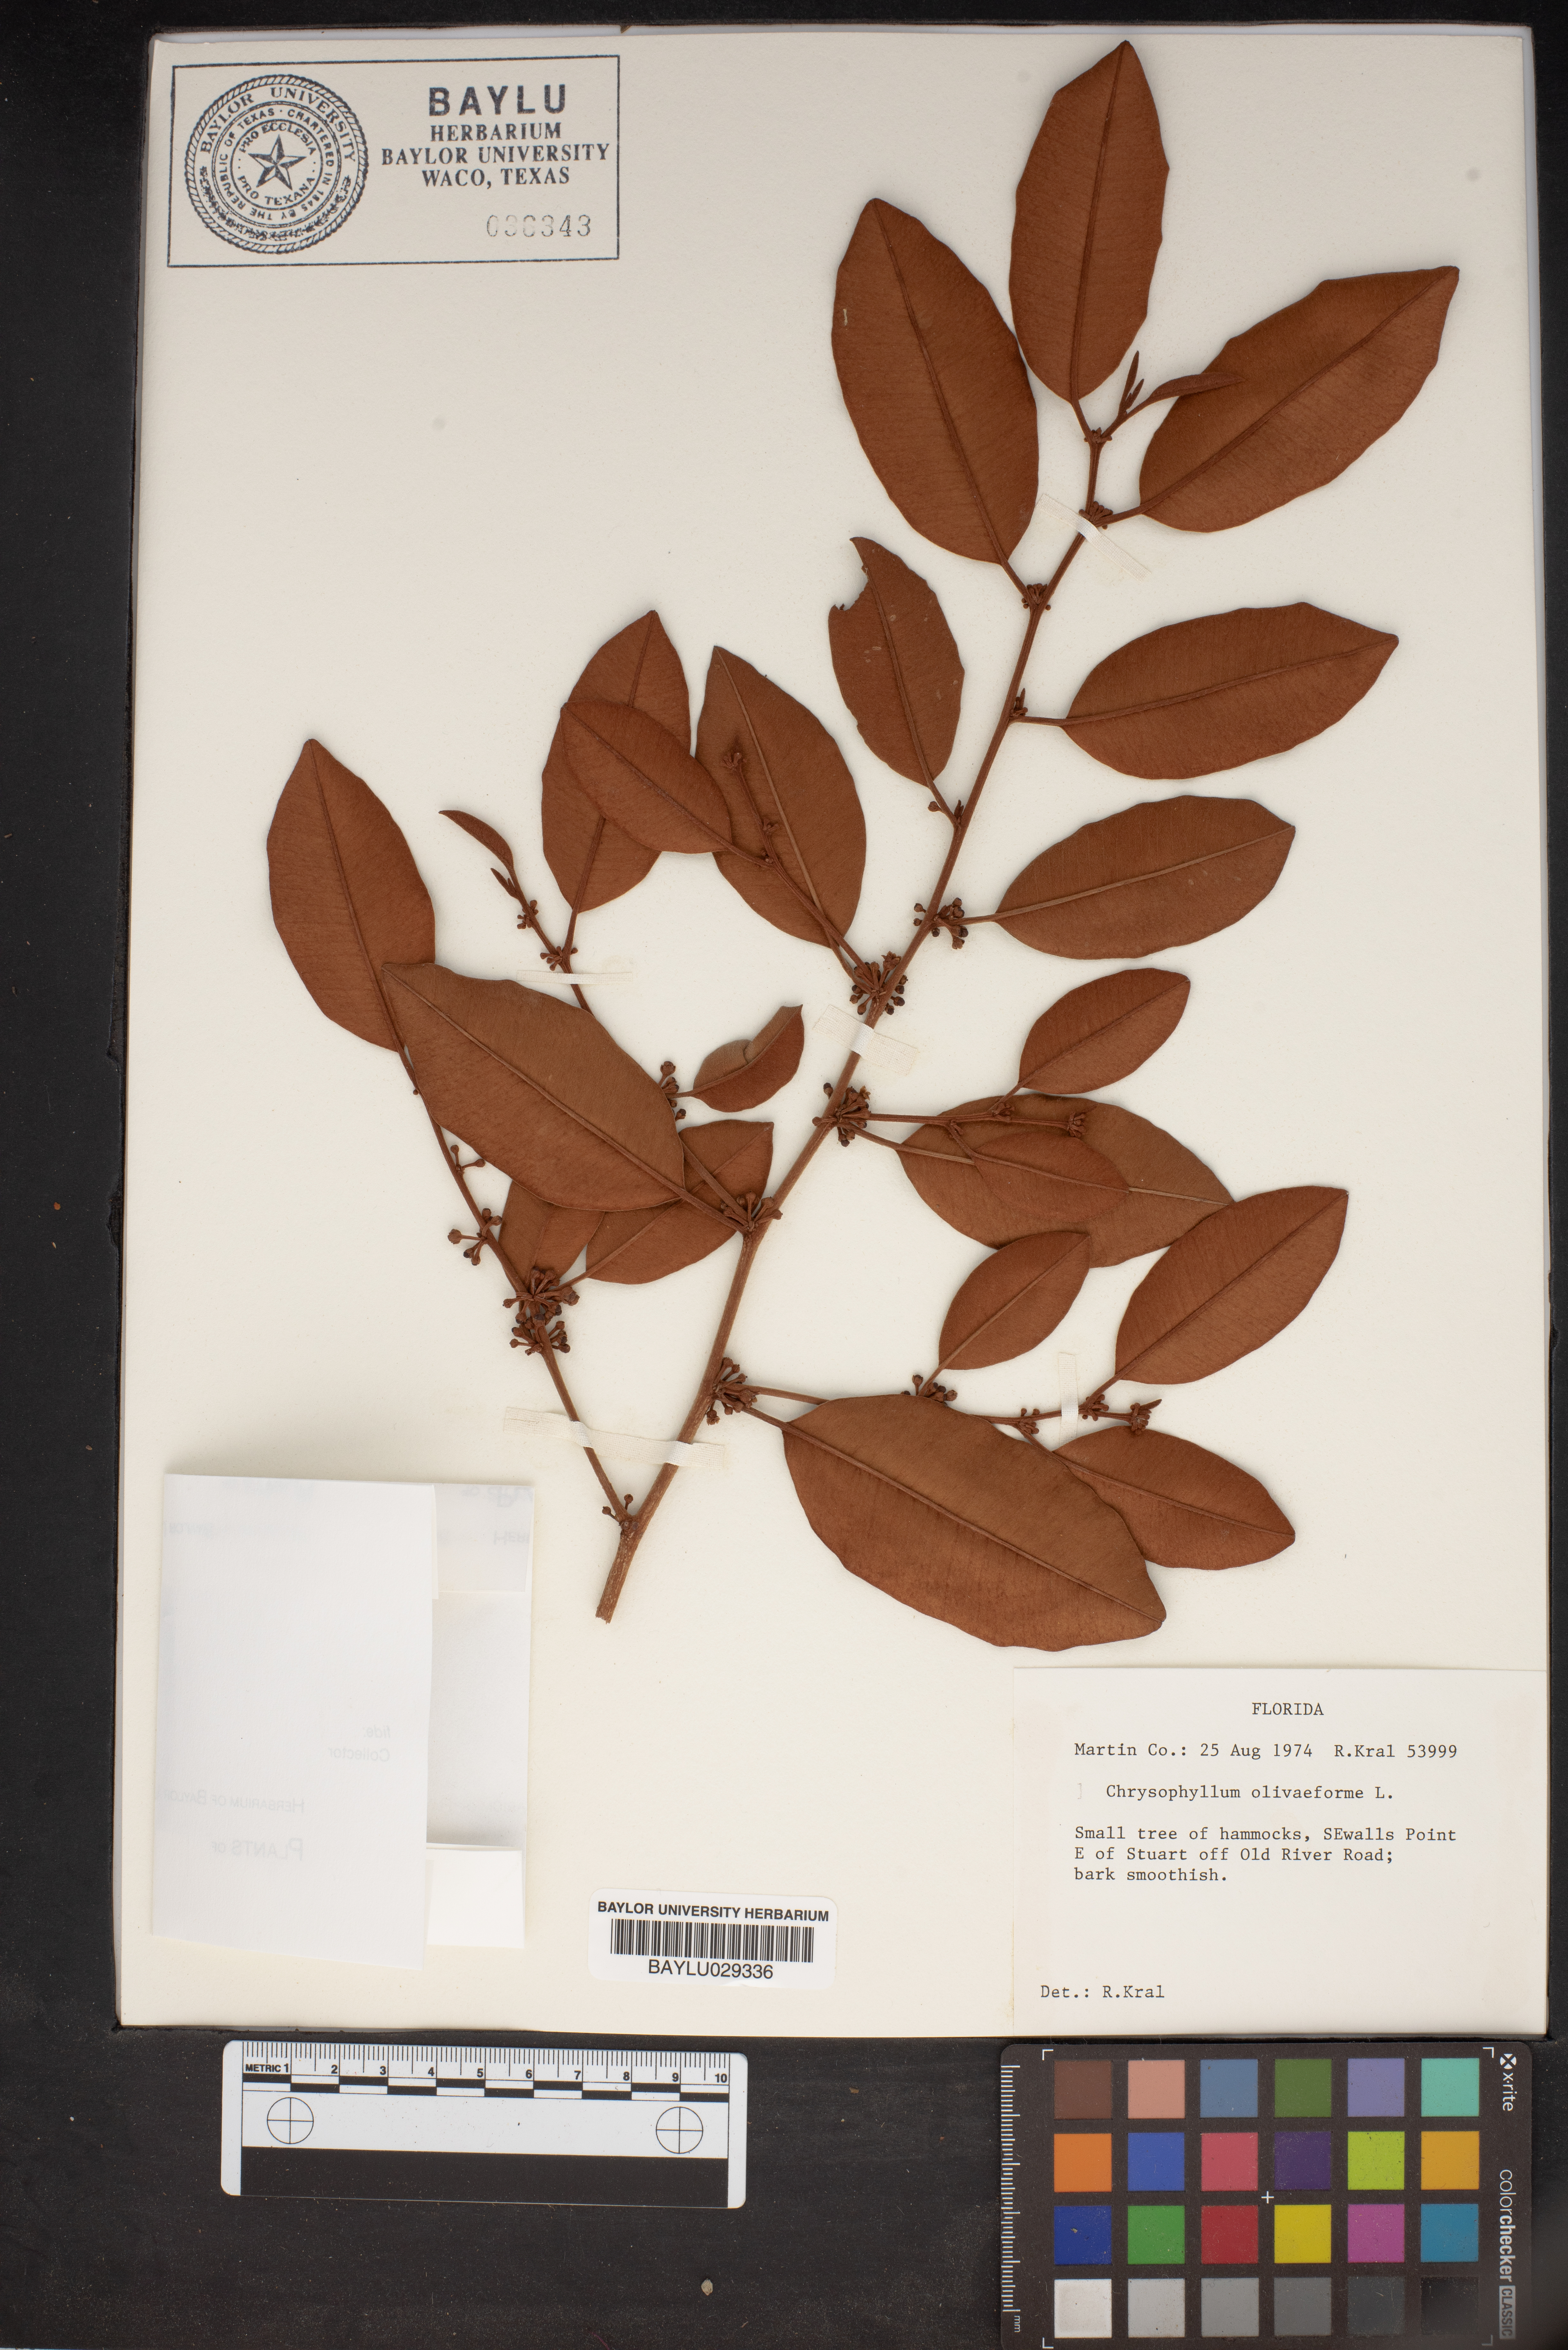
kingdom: Plantae
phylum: Tracheophyta
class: Magnoliopsida
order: Ericales
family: Sapotaceae
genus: Chrysophyllum
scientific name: Chrysophyllum oliviforme
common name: Satinleaf
